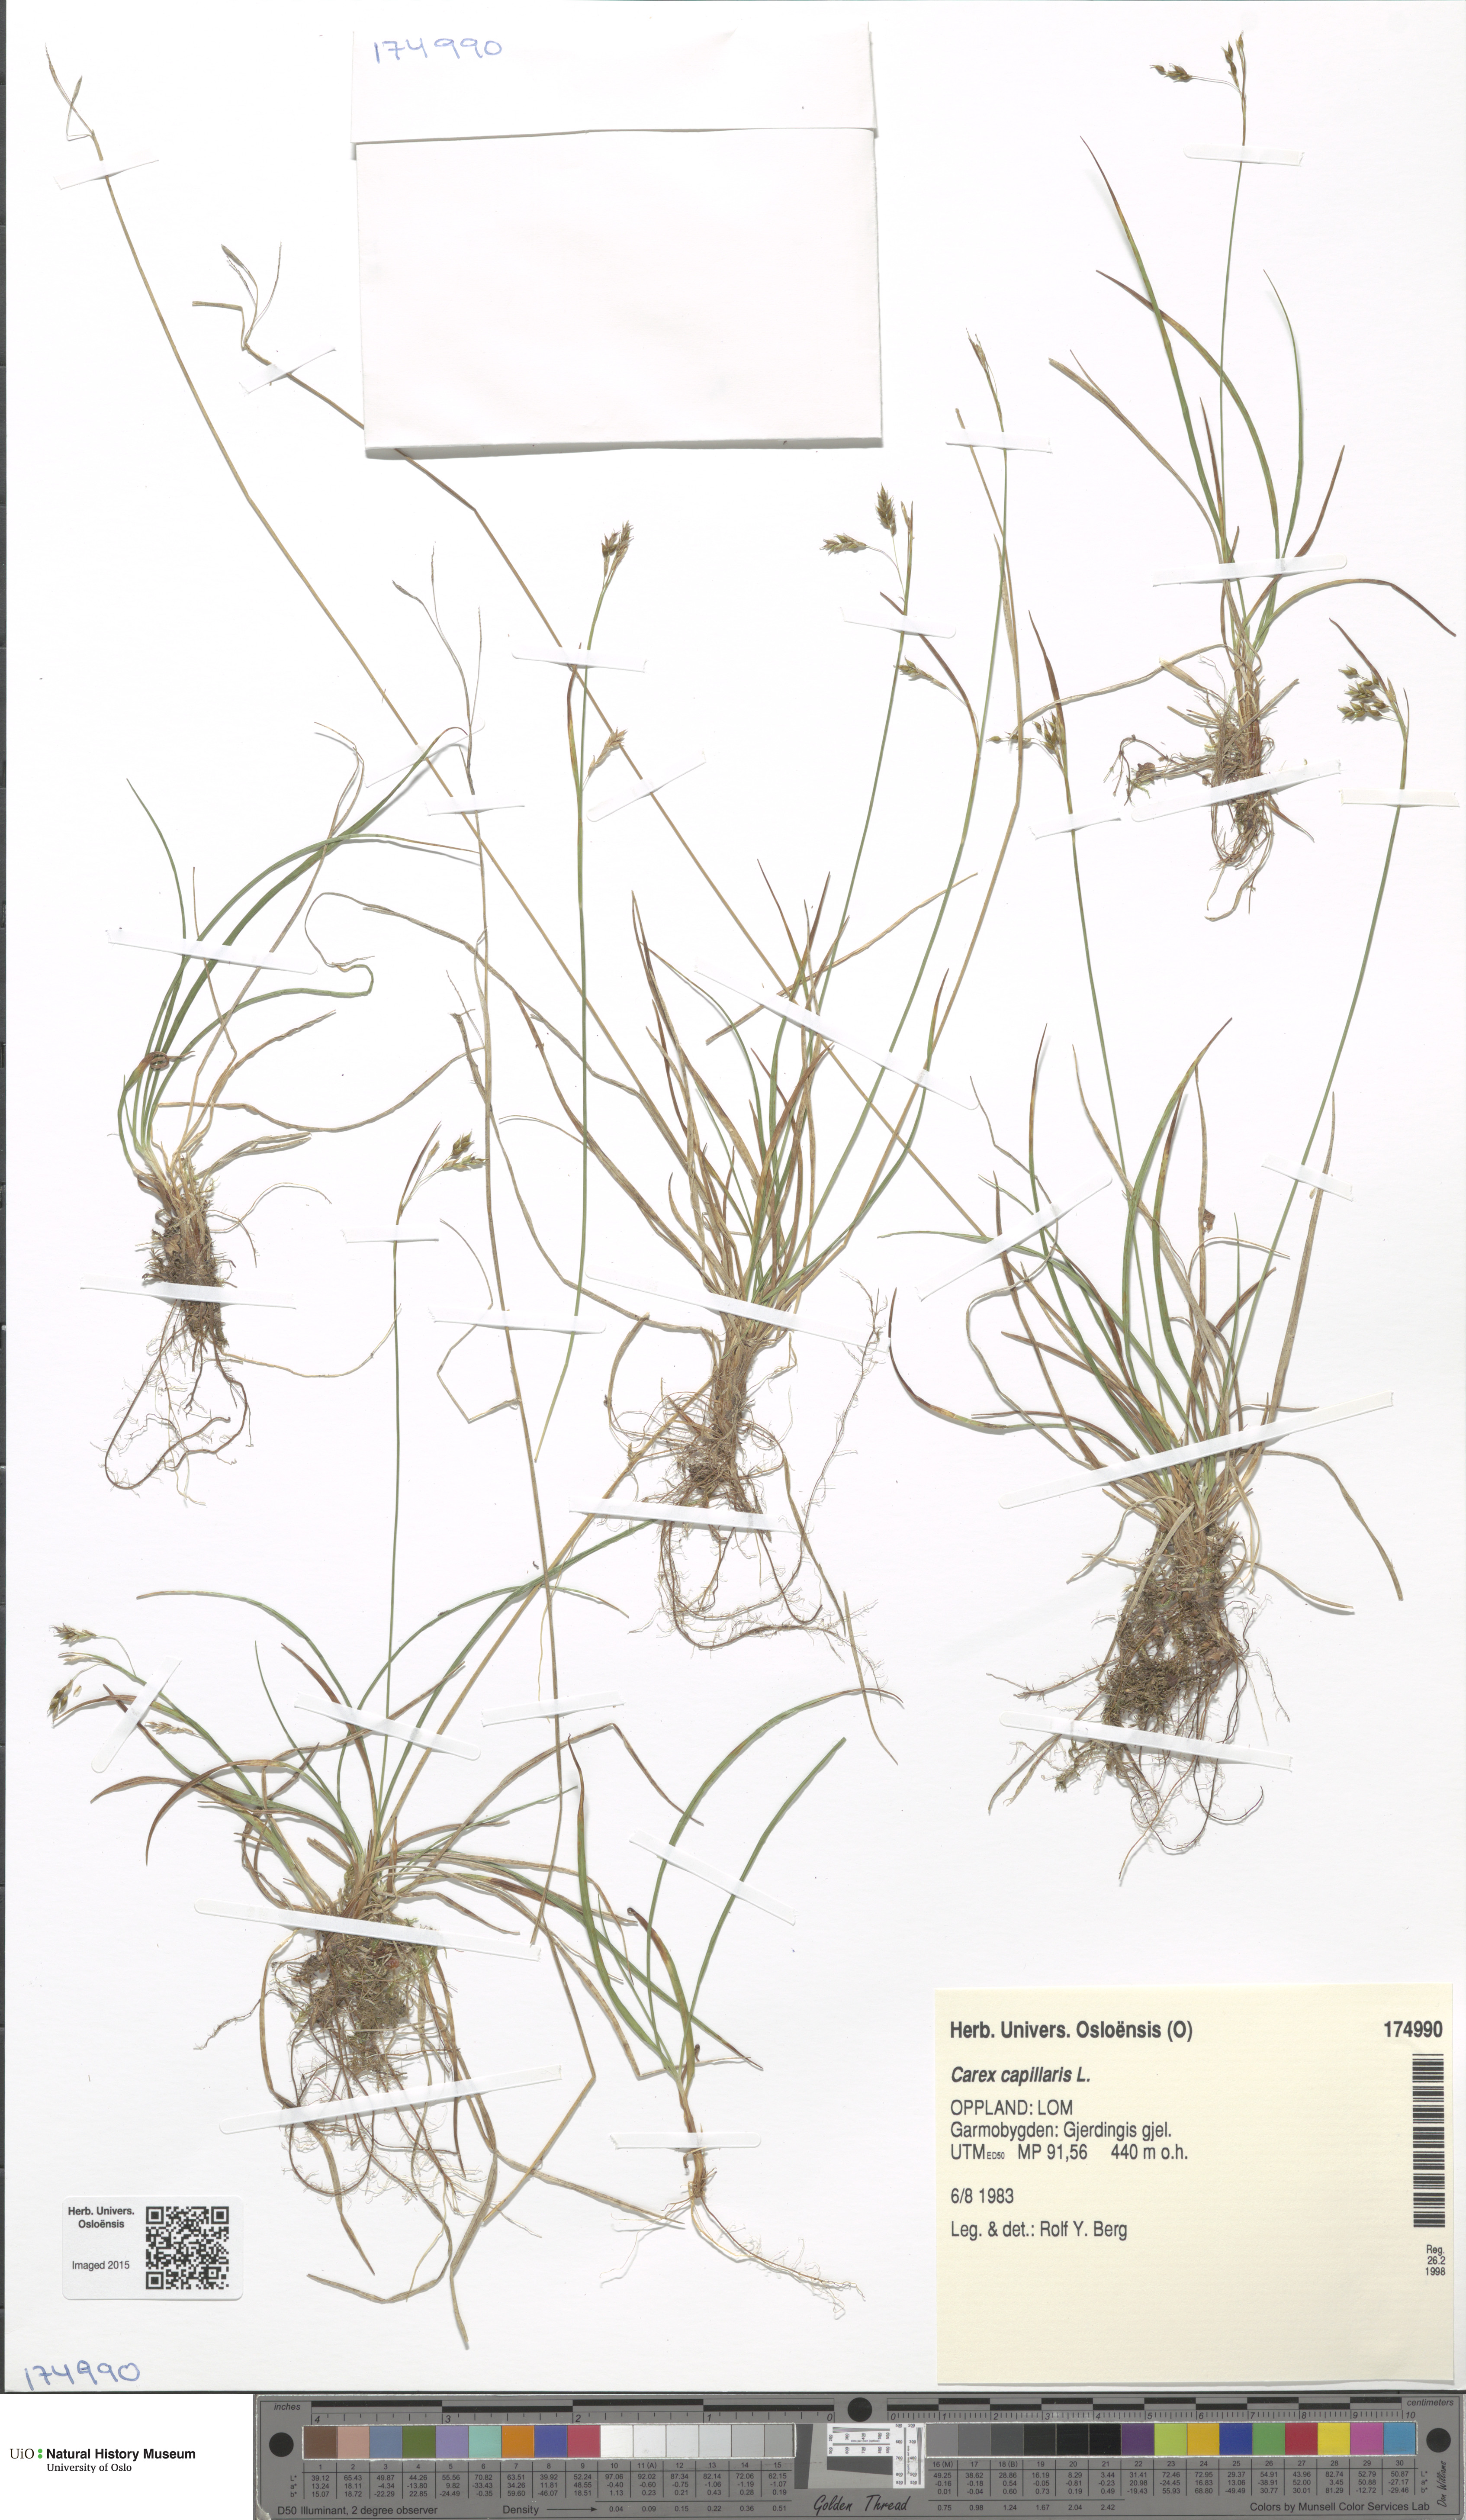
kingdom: Plantae
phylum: Tracheophyta
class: Liliopsida
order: Poales
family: Cyperaceae
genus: Carex
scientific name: Carex capillaris
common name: Hair sedge
